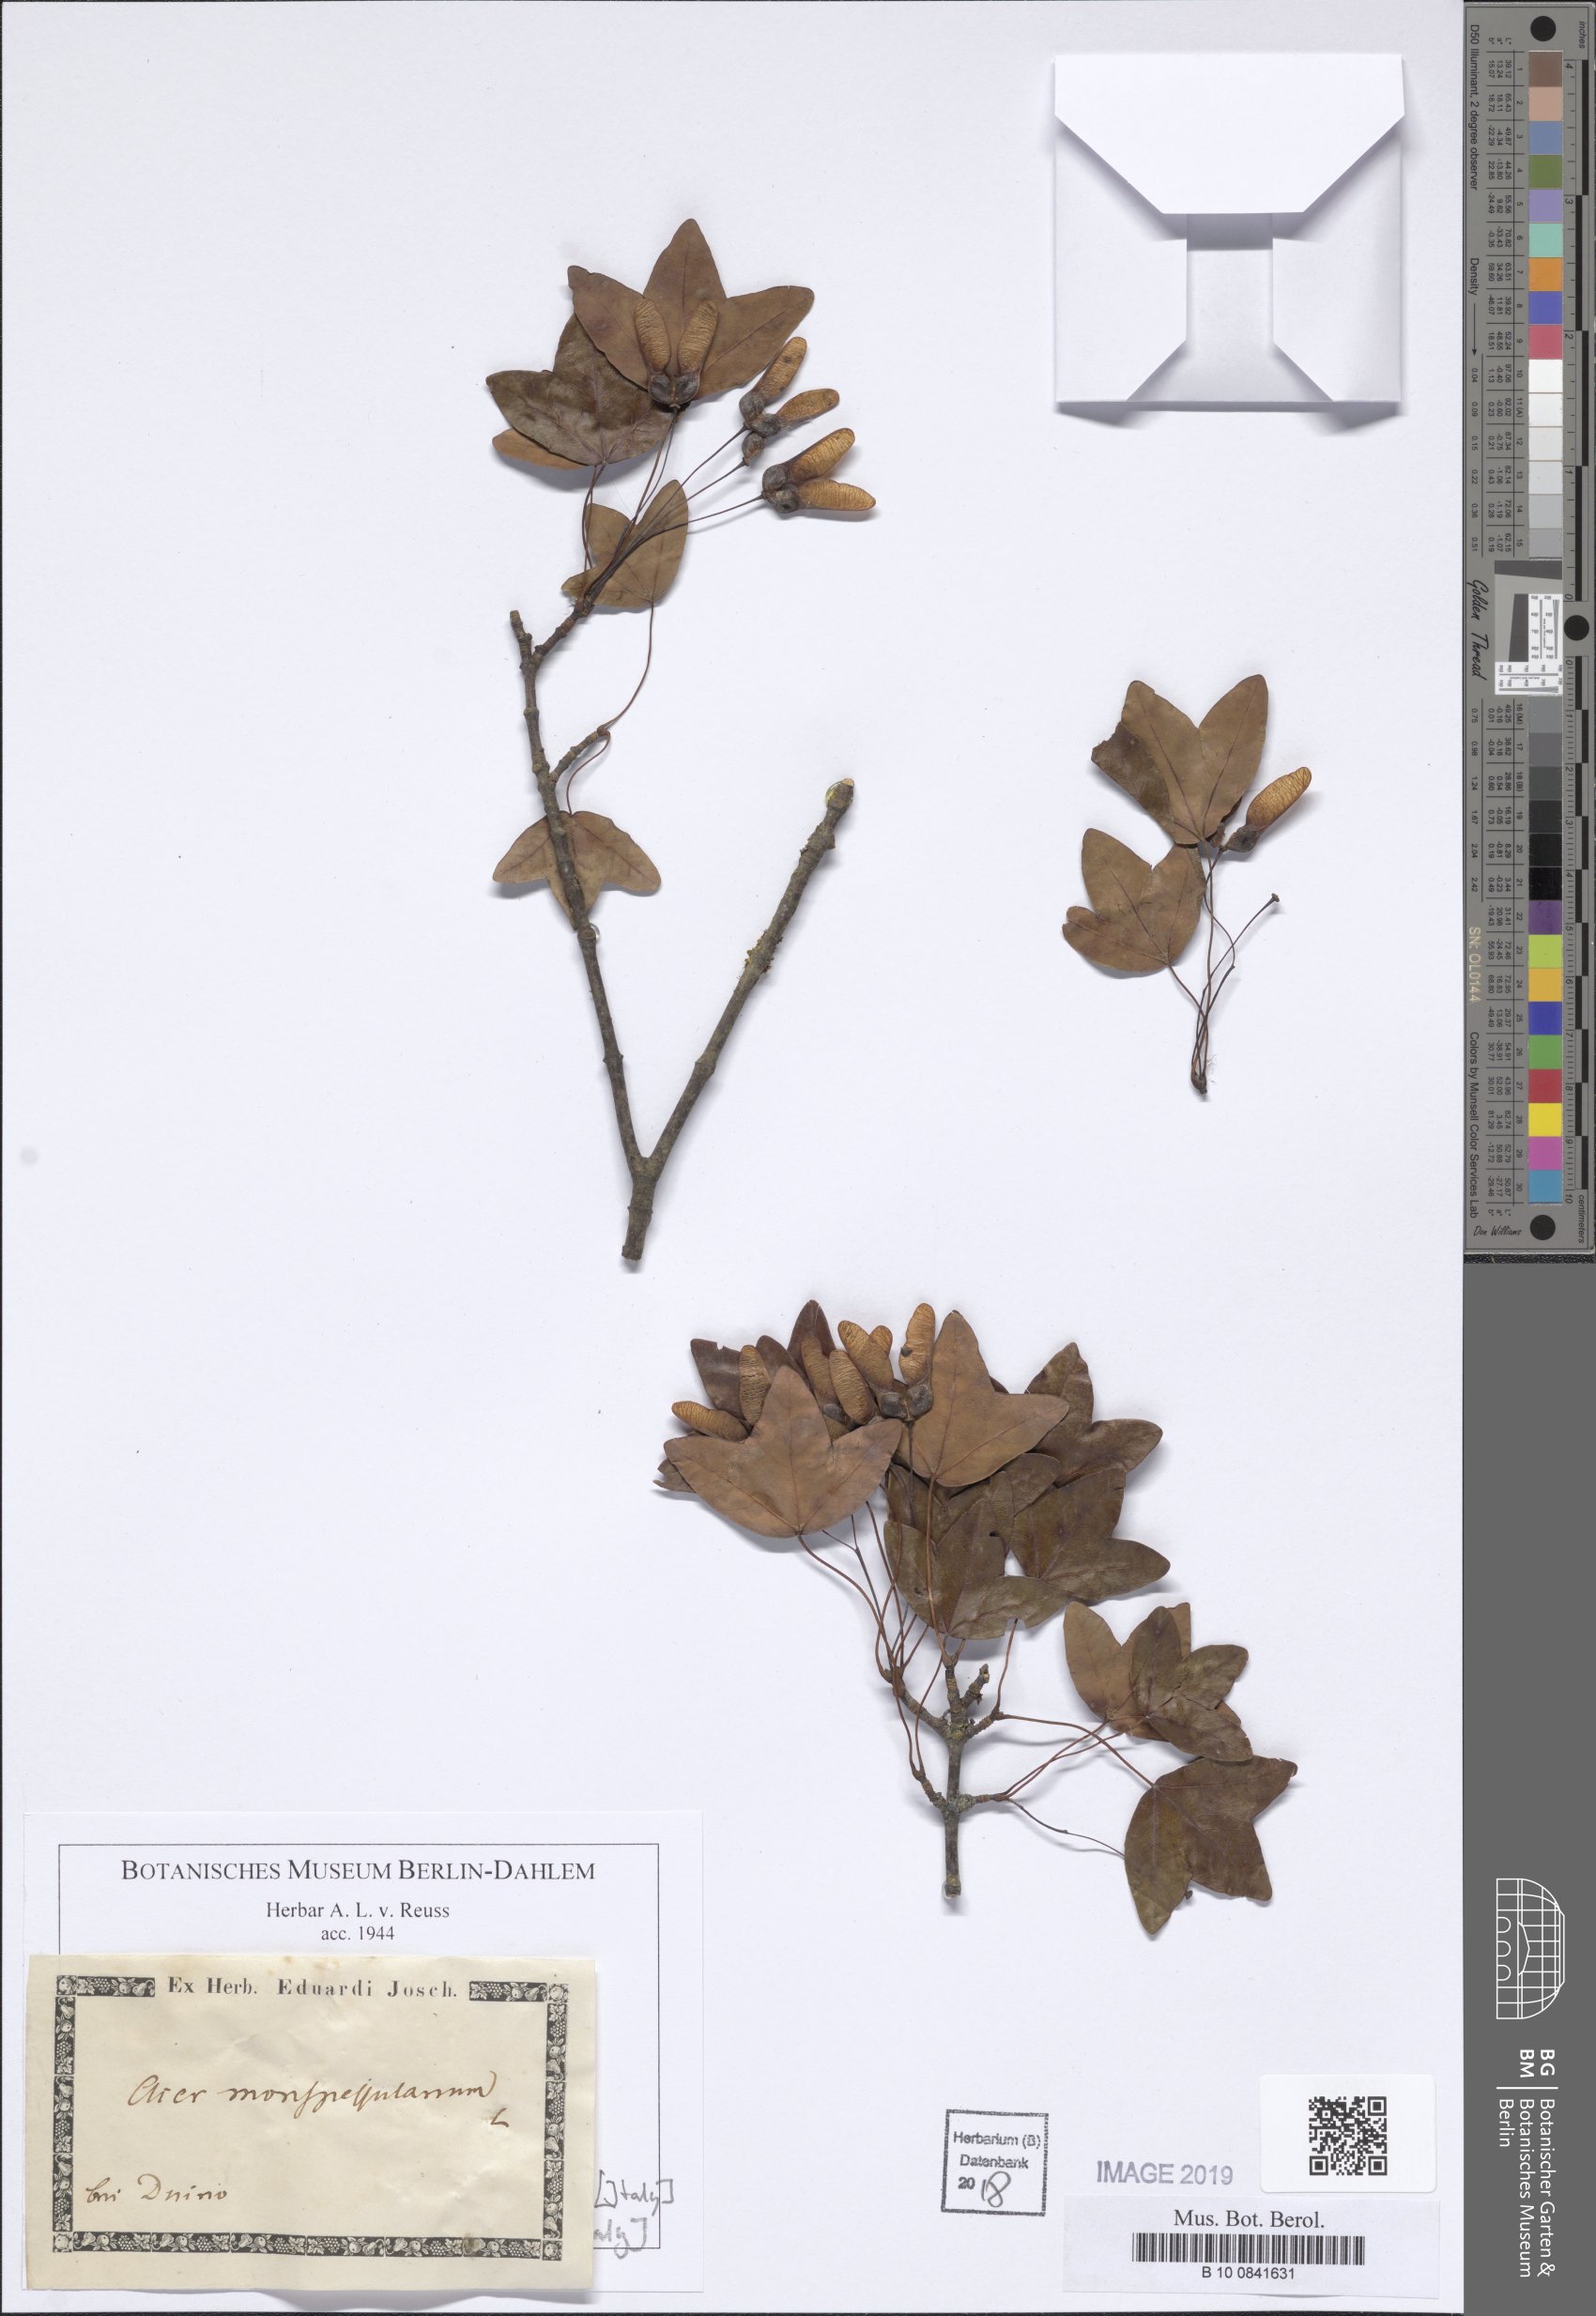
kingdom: Plantae
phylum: Tracheophyta
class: Magnoliopsida
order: Sapindales
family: Sapindaceae
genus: Acer
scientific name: Acer monspessulanum
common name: Montpellier maple
